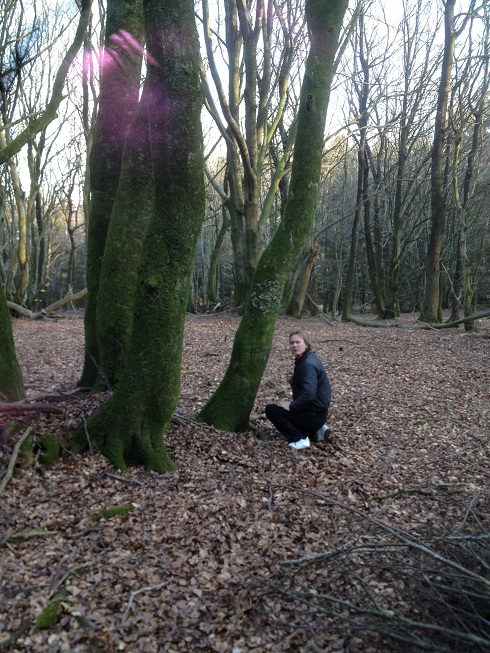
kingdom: Fungi
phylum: Ascomycota
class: Lecanoromycetes
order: Peltigerales
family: Lobariaceae
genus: Lobaria
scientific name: Lobaria pulmonaria
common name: almindelig lungelav
